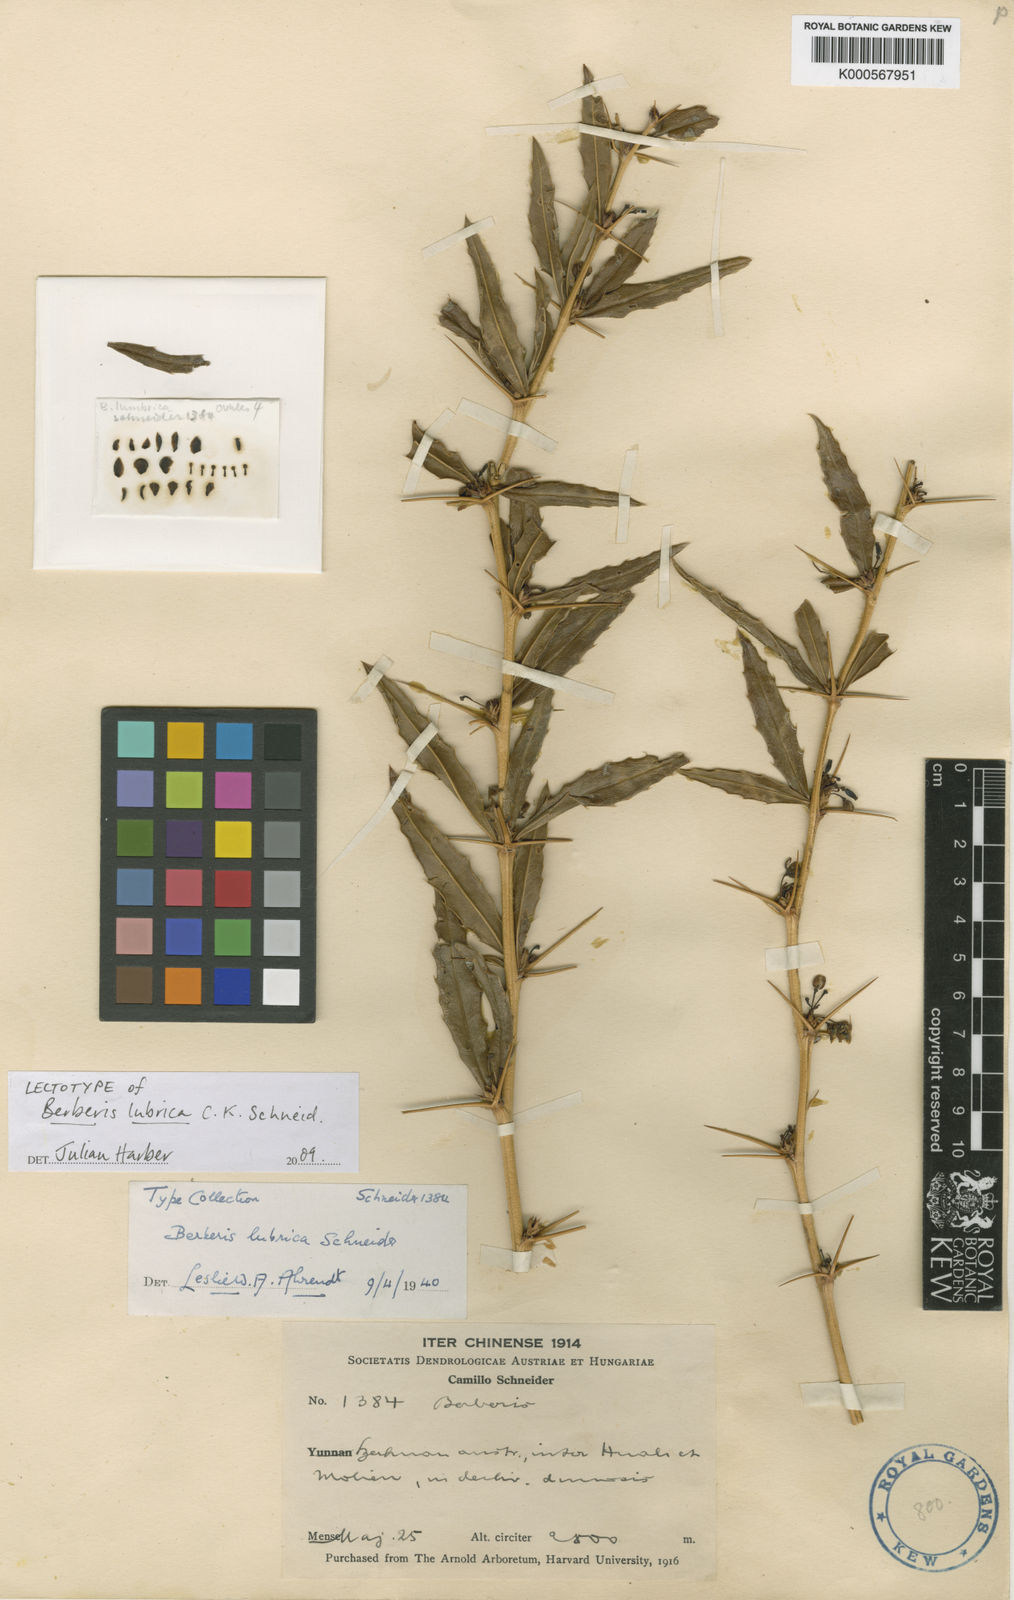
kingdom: Plantae
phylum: Tracheophyta
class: Magnoliopsida
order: Ranunculales
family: Berberidaceae
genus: Berberis
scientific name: Berberis lubrica
